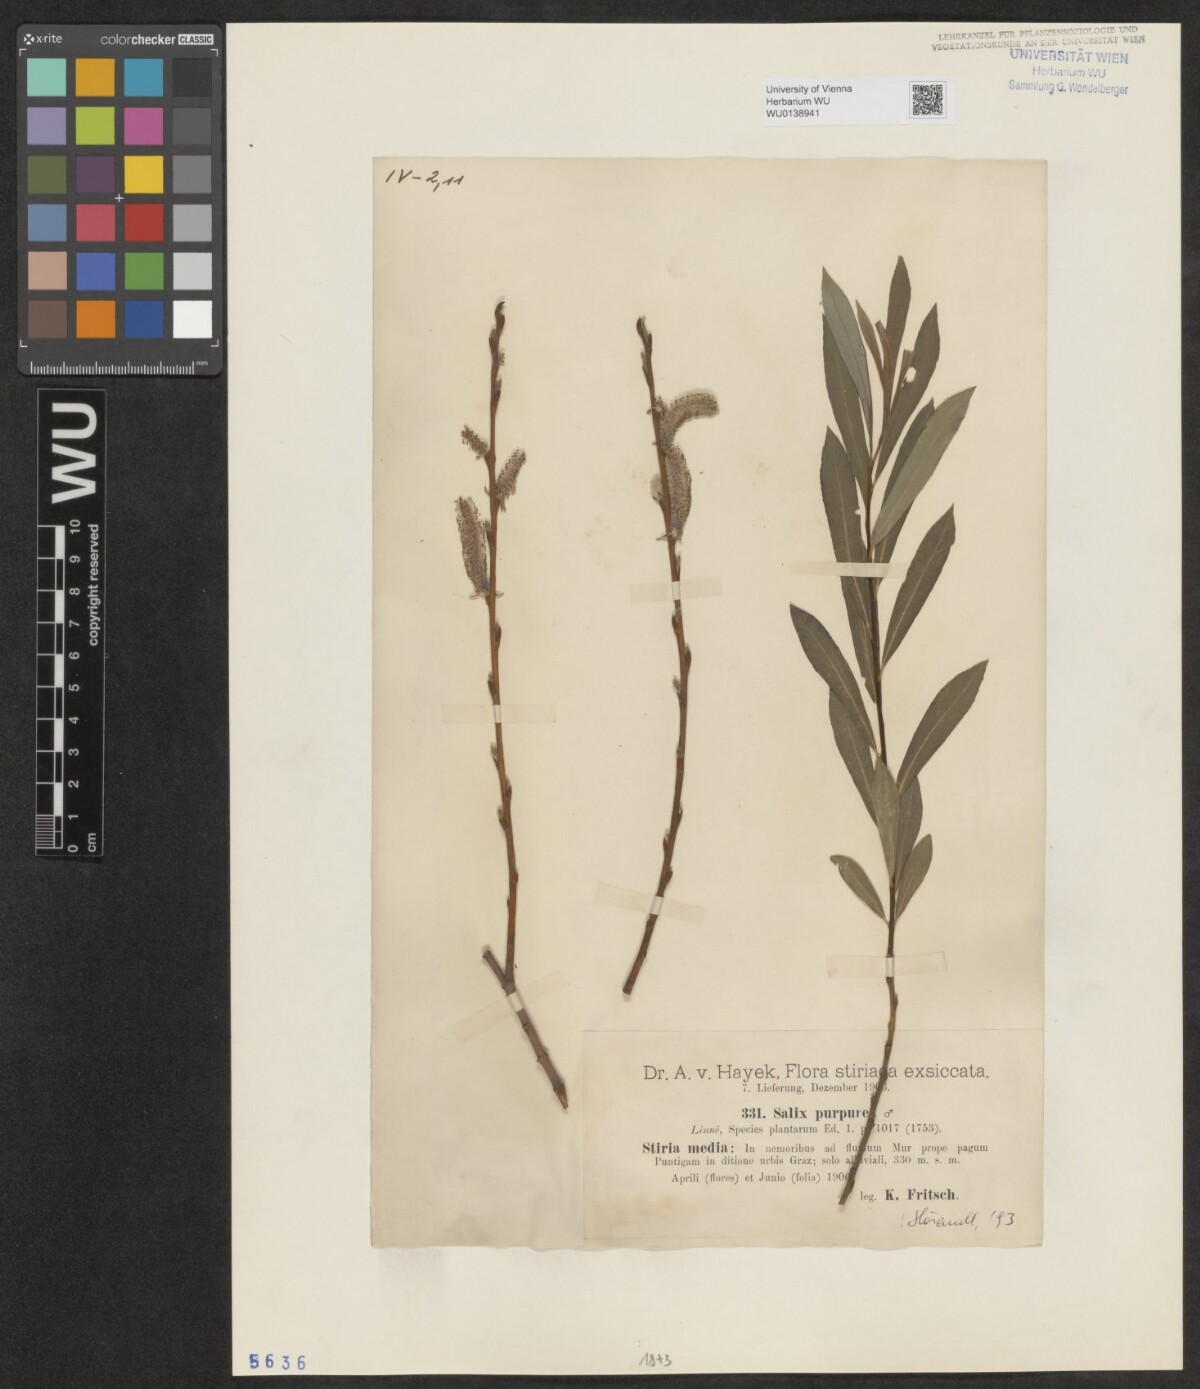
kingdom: Plantae
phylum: Tracheophyta
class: Magnoliopsida
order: Malpighiales
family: Salicaceae
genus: Salix
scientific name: Salix purpurea
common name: Purple willow
